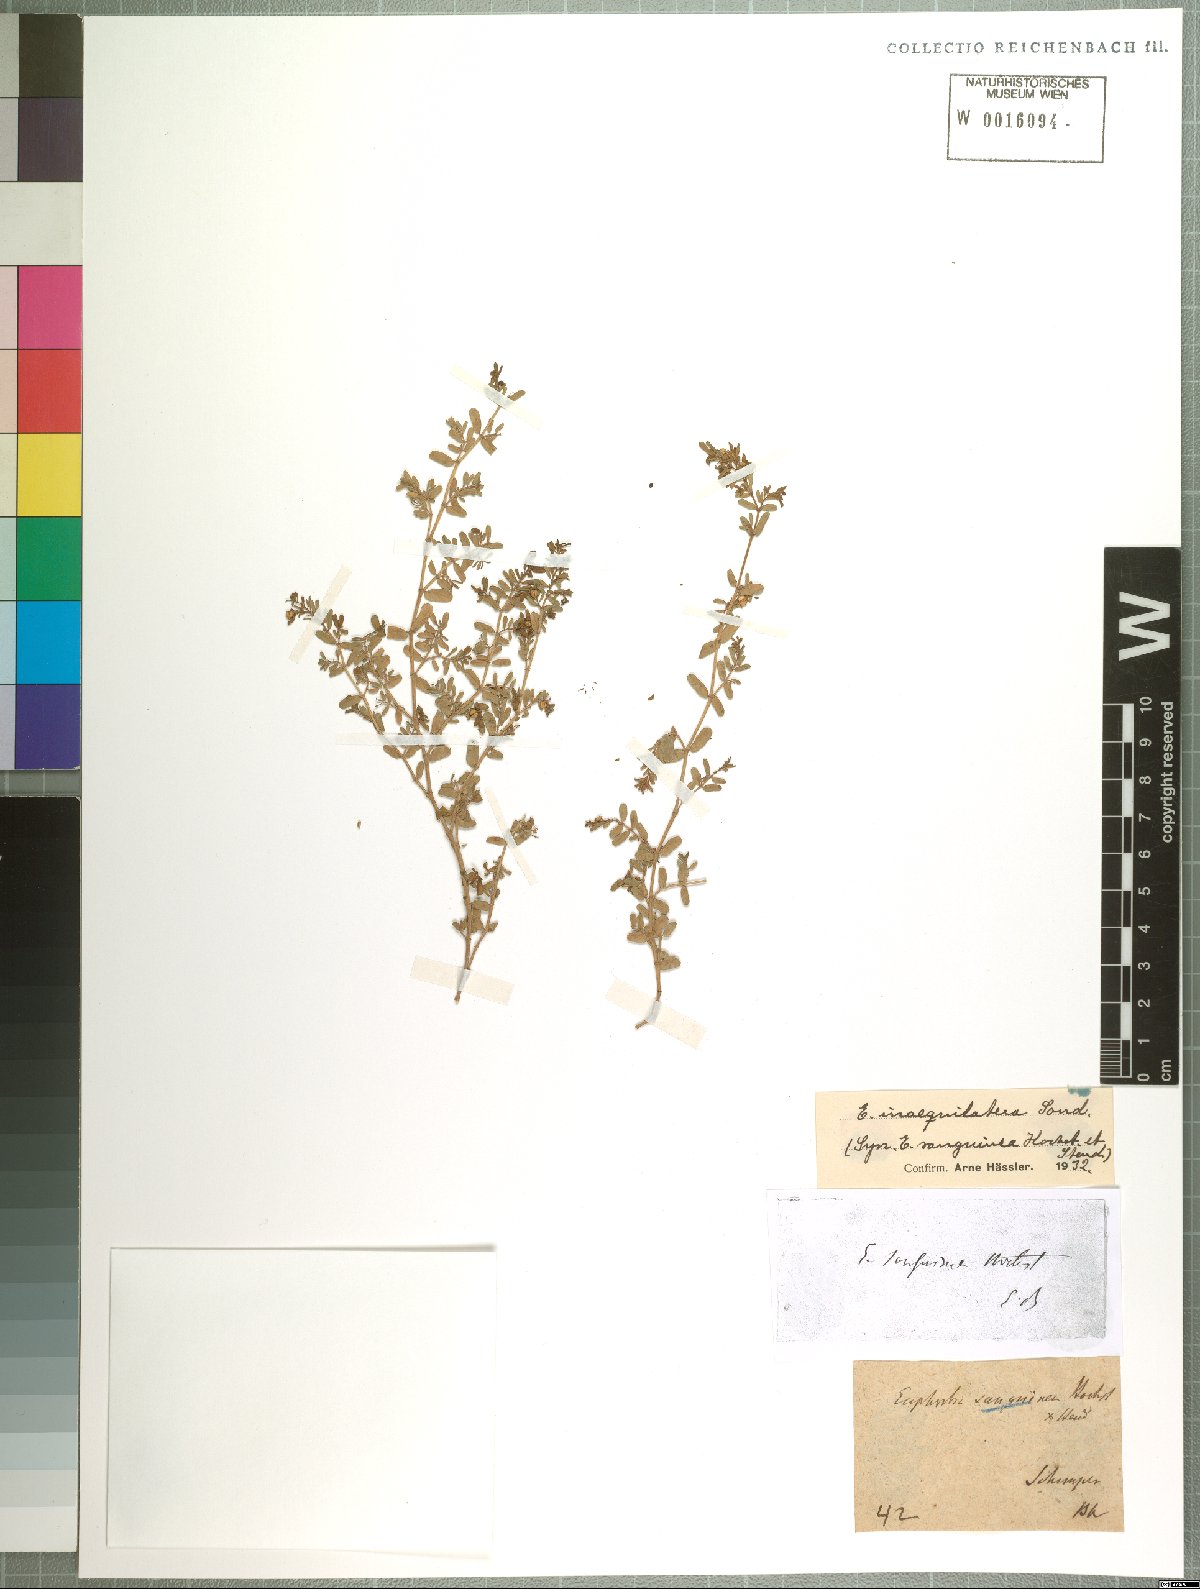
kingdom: Plantae
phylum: Tracheophyta
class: Magnoliopsida
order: Malpighiales
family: Euphorbiaceae
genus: Euphorbia
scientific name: Euphorbia inaequilatera
